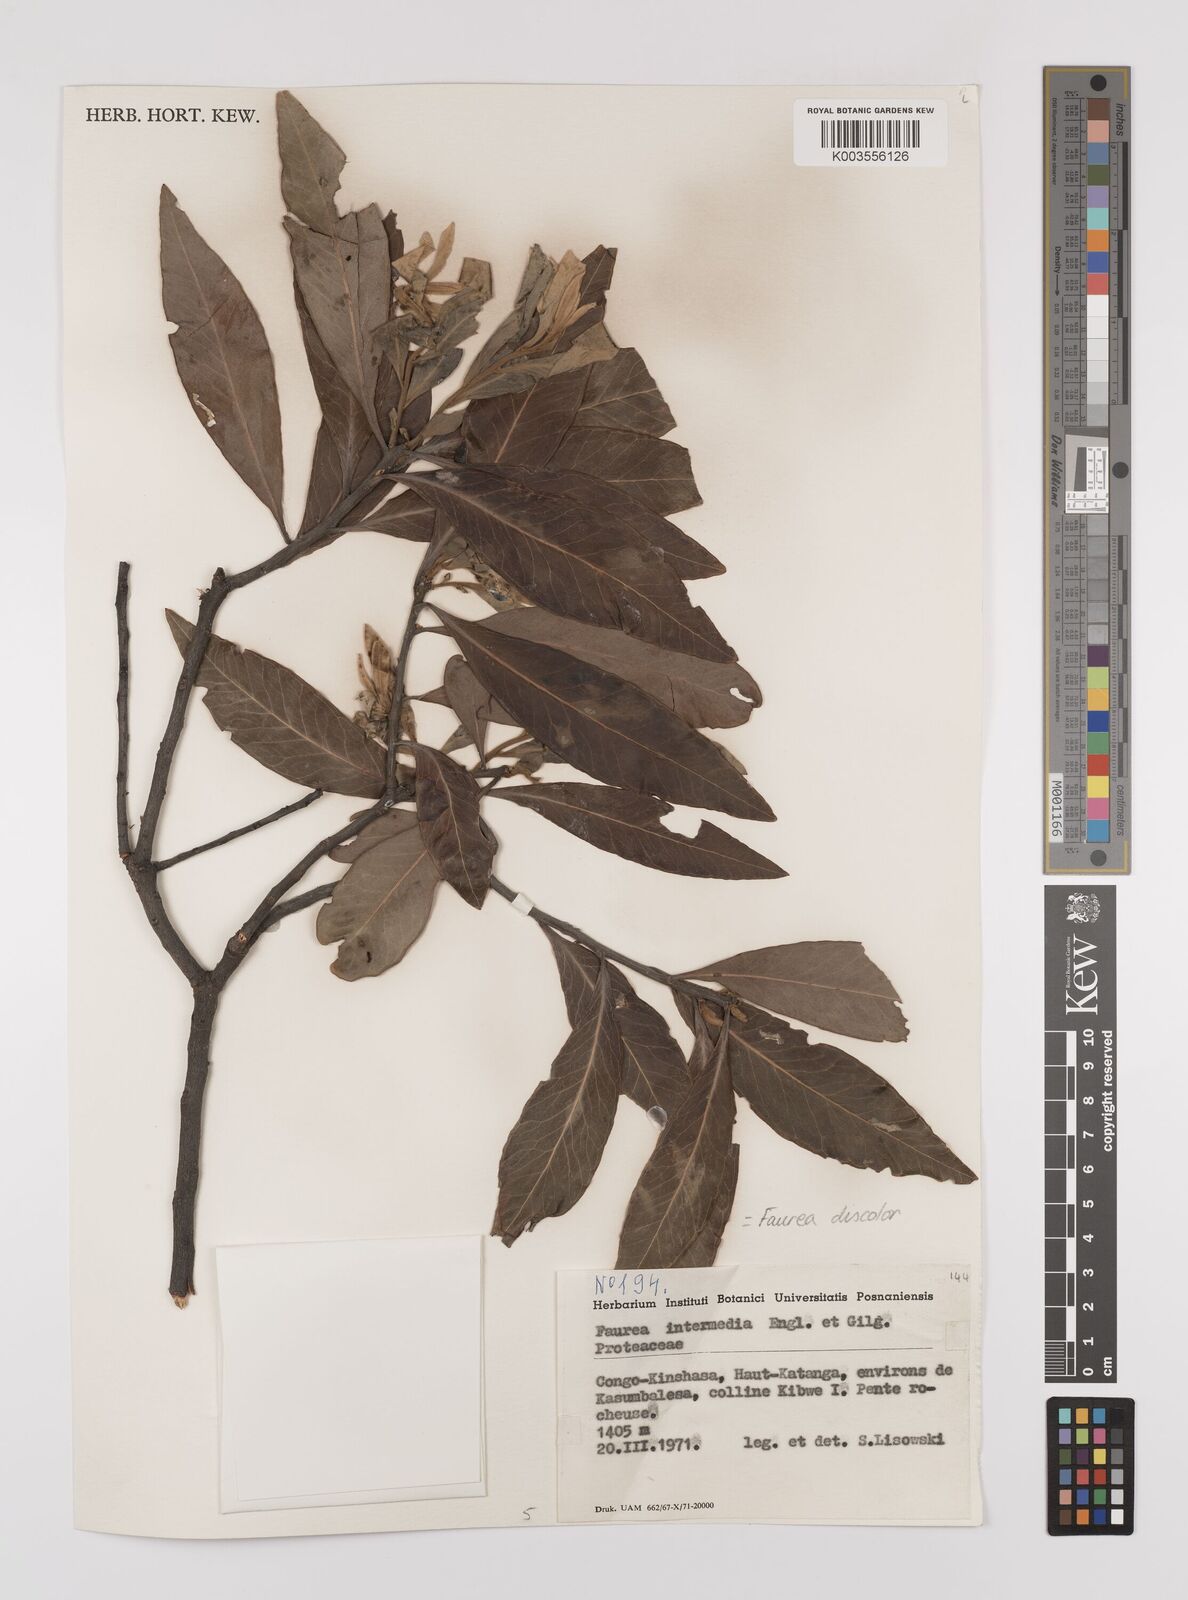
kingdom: Plantae
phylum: Tracheophyta
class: Magnoliopsida
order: Proteales
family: Proteaceae
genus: Faurea
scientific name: Faurea discolor
